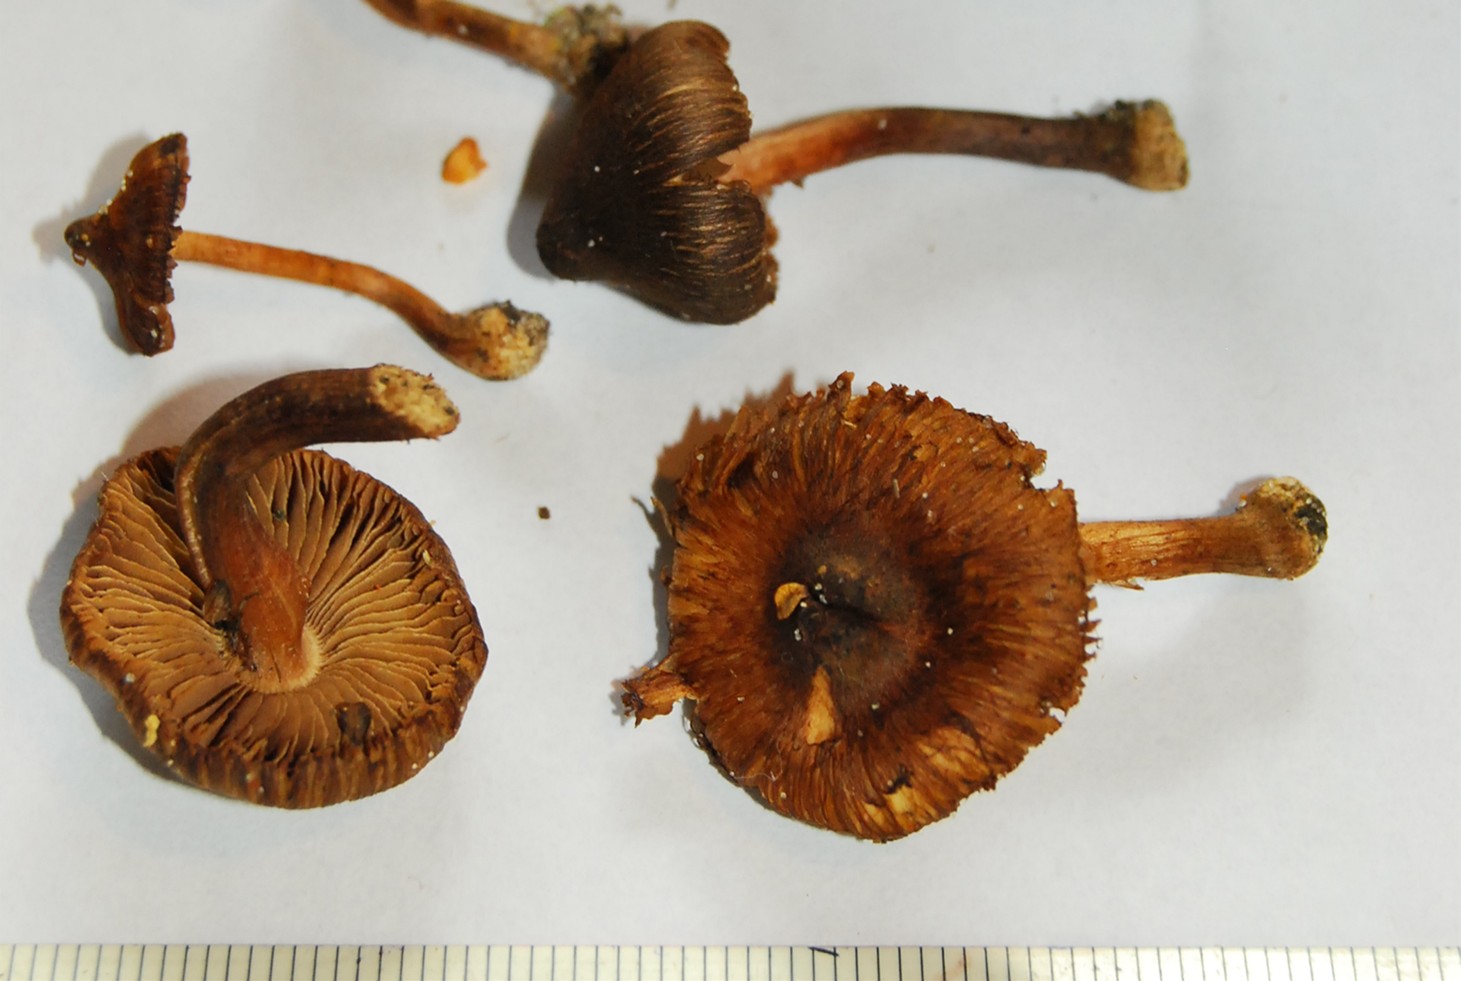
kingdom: Fungi
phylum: Basidiomycota
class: Agaricomycetes
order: Agaricales
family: Inocybaceae
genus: Inocybe
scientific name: Inocybe acuta
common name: papil-trævlhat
